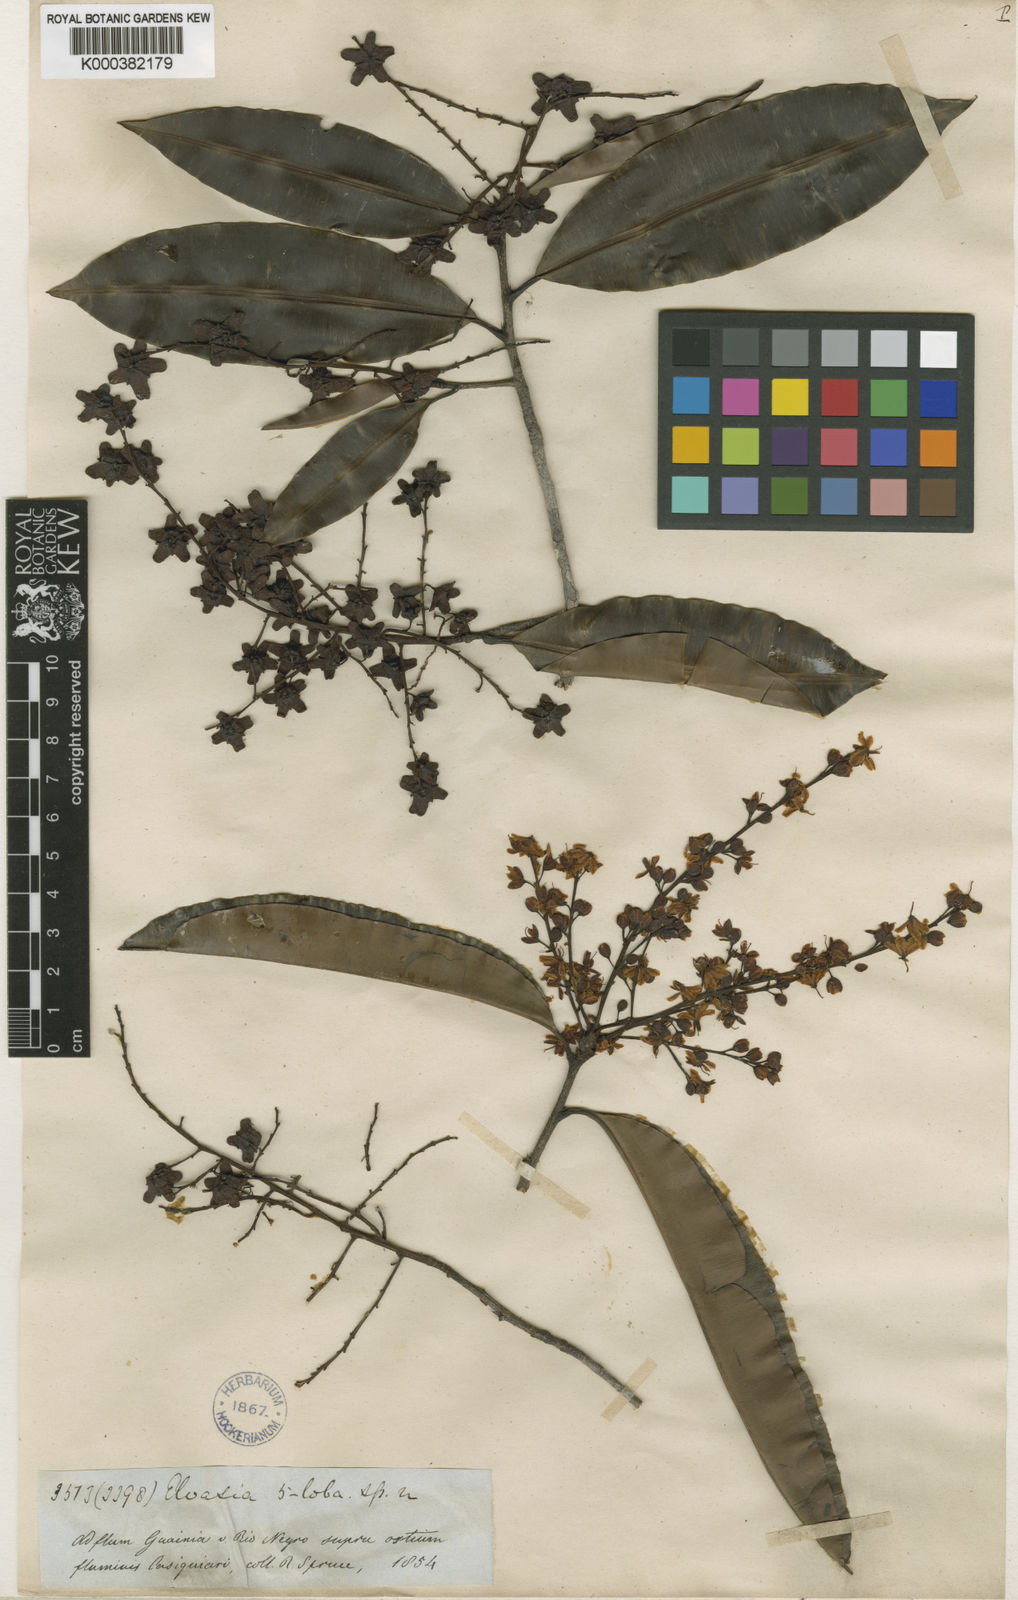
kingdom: Plantae
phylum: Tracheophyta
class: Magnoliopsida
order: Malpighiales
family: Ochnaceae
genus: Elvasia
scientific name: Elvasia quinqueloba
